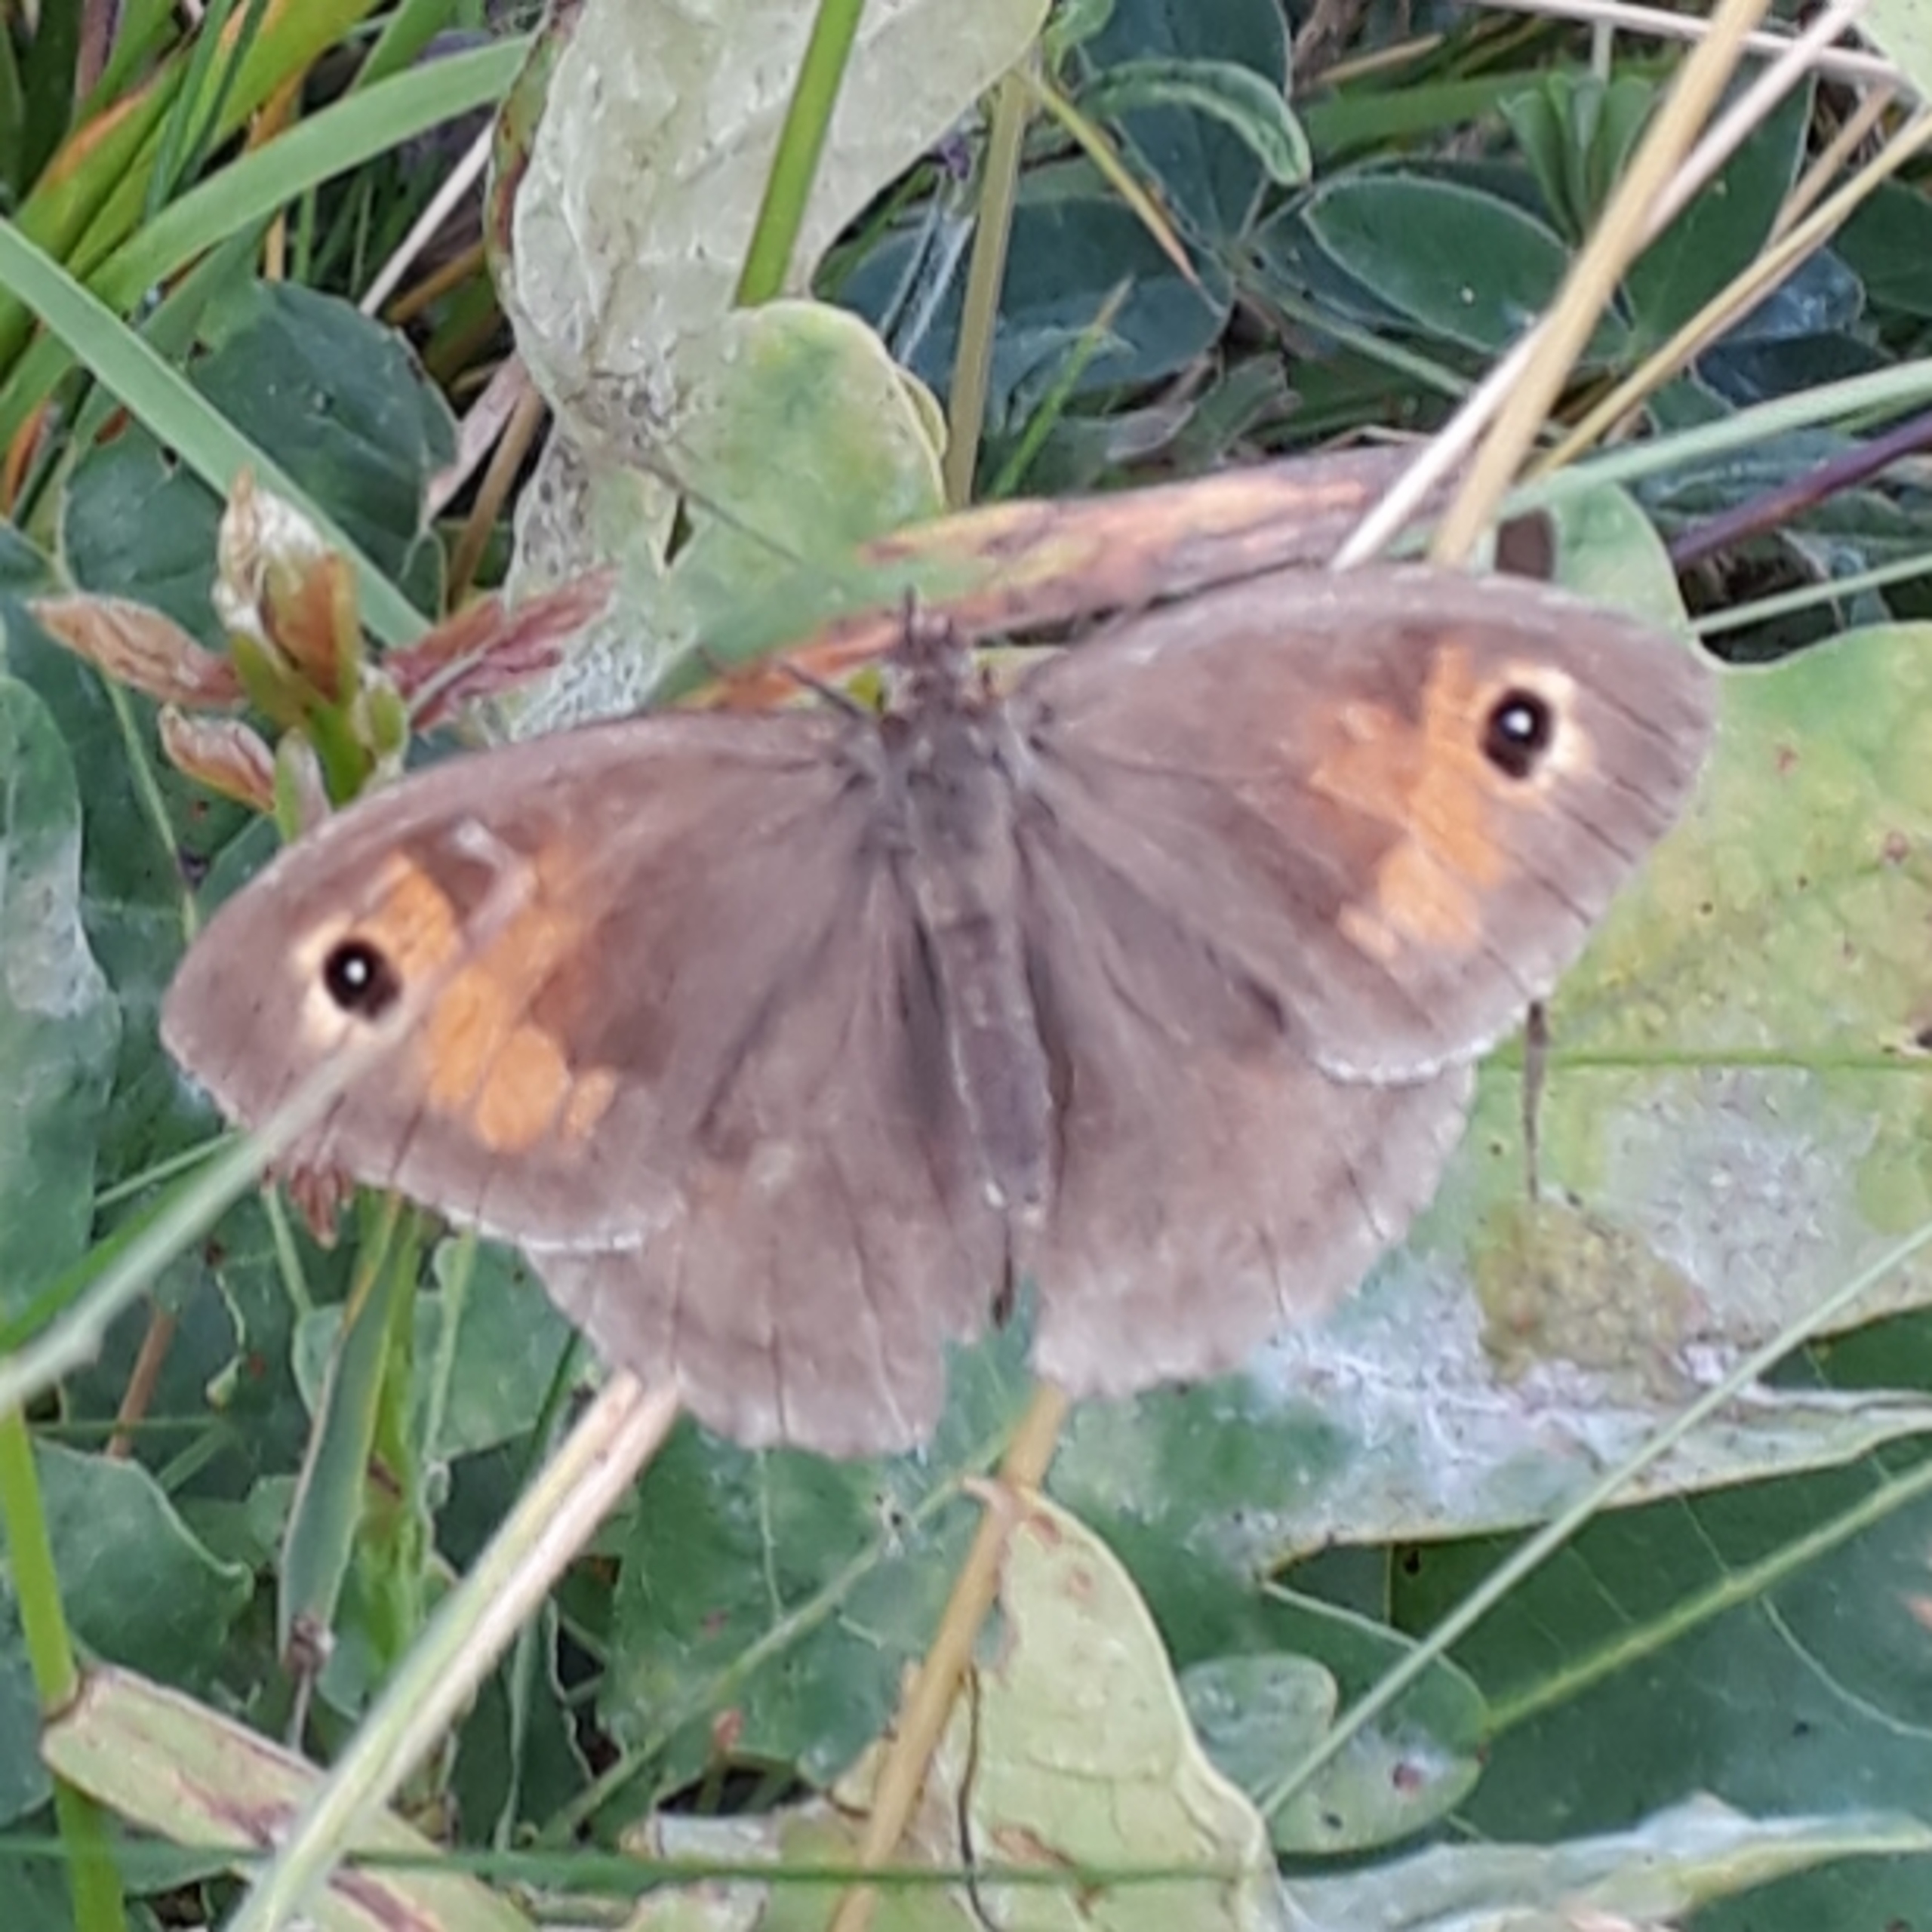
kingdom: Animalia
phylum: Arthropoda
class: Insecta
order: Lepidoptera
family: Nymphalidae
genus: Maniola
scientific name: Maniola jurtina
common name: Græsrandøje
